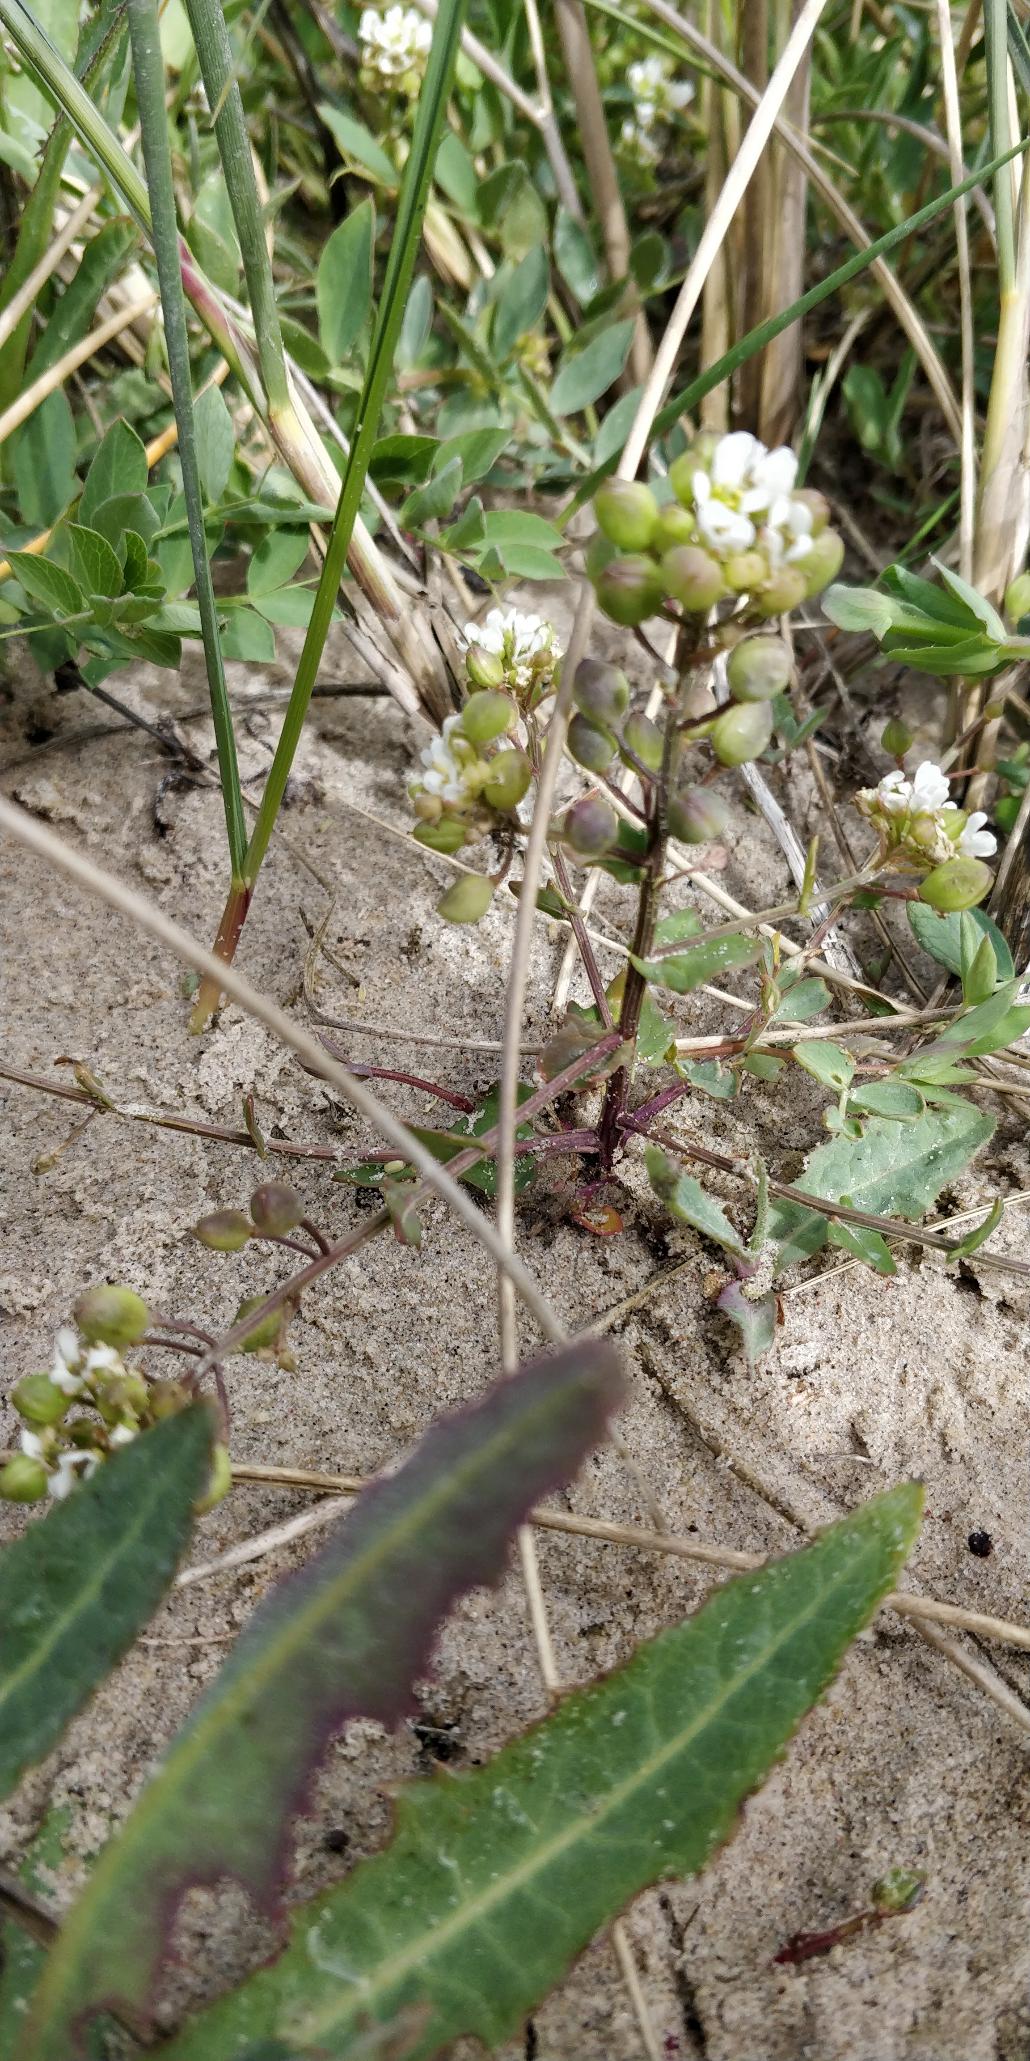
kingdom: Plantae
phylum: Tracheophyta
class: Magnoliopsida
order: Brassicales
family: Brassicaceae
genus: Cochlearia
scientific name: Cochlearia officinalis
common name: Læge-kokleare (underart)
